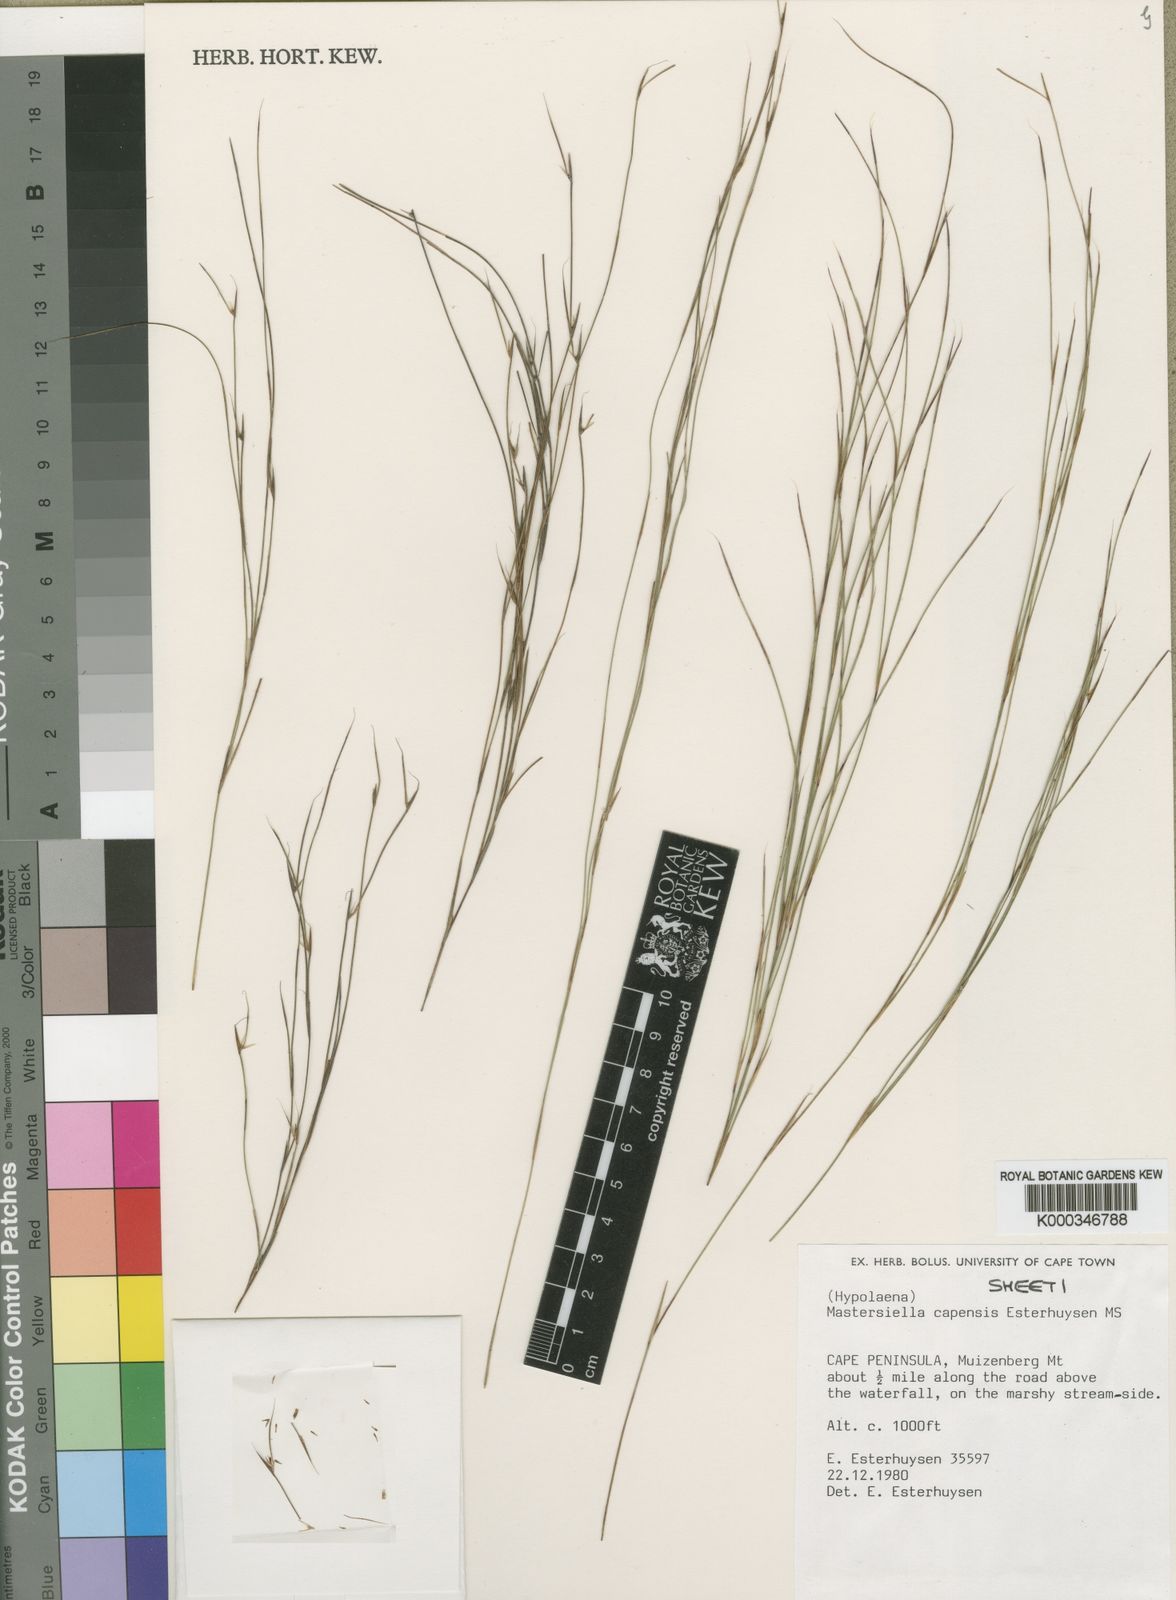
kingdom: Plantae
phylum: Tracheophyta
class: Liliopsida
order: Poales
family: Restionaceae
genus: Anthochortus
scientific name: Anthochortus capensis
